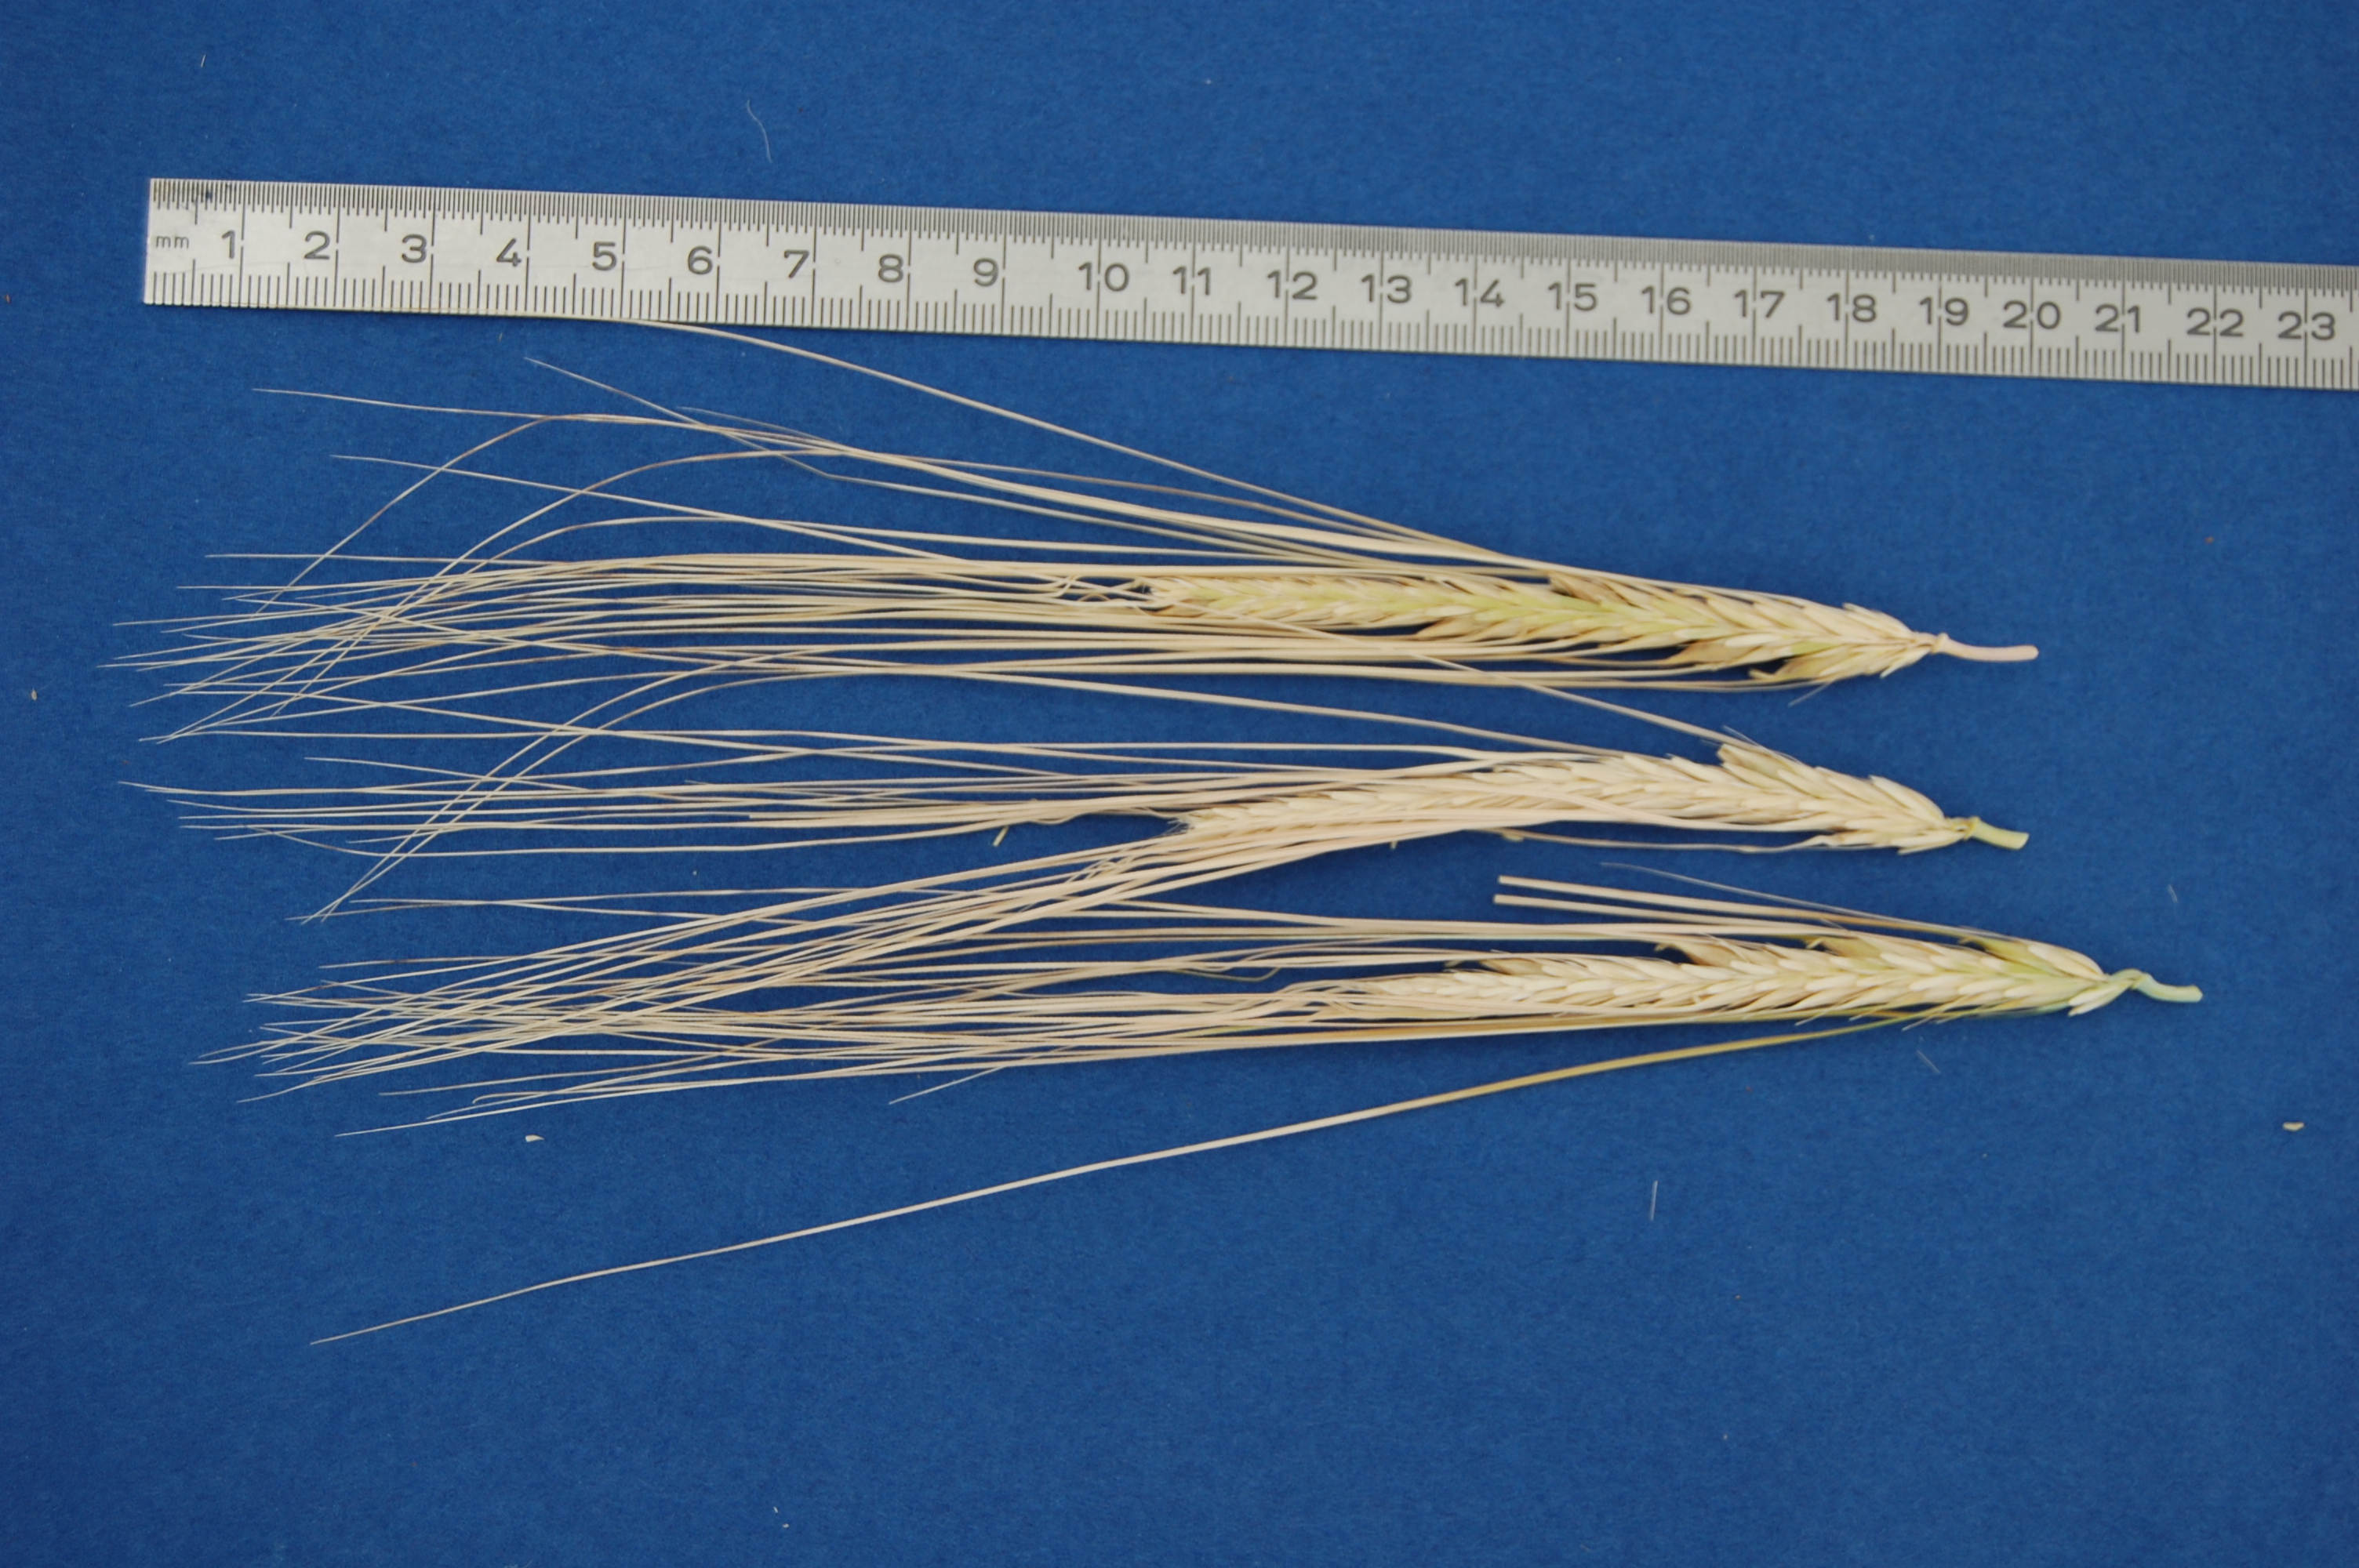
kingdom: Plantae
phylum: Tracheophyta
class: Liliopsida
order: Poales
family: Poaceae
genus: Hordeum
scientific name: Hordeum vulgare
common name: Common barley
